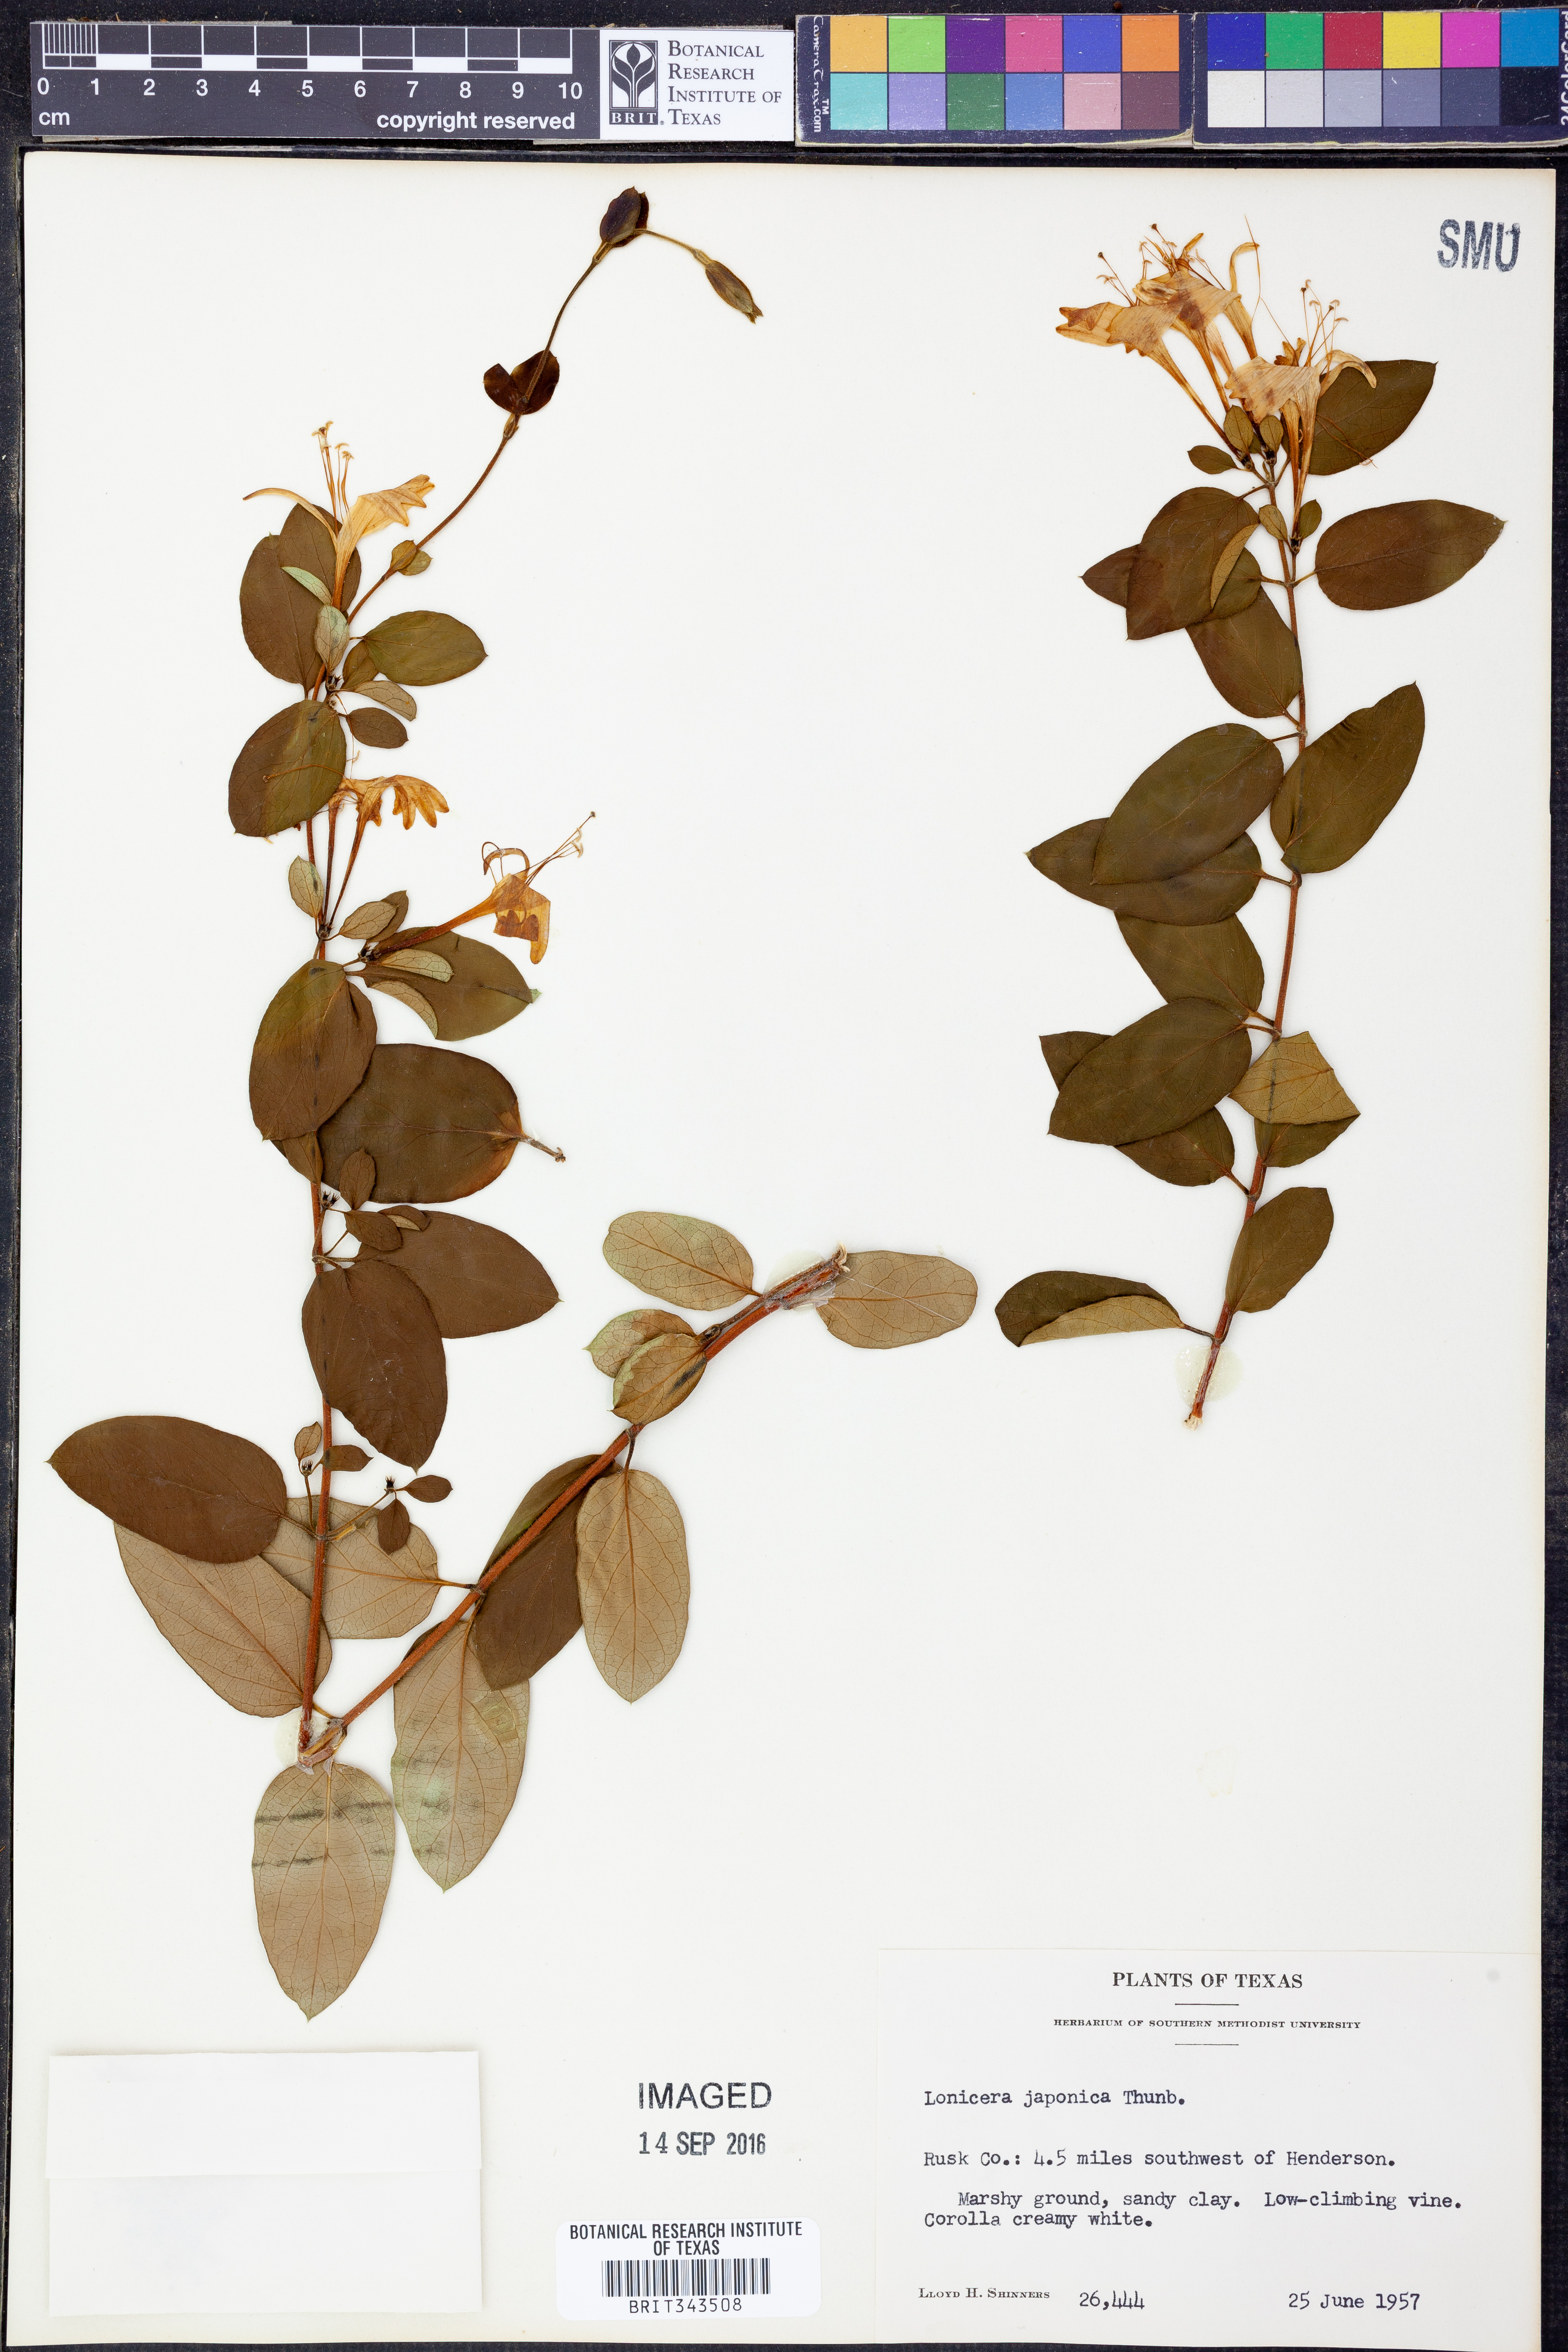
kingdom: Plantae
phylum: Tracheophyta
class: Magnoliopsida
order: Dipsacales
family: Caprifoliaceae
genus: Lonicera
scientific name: Lonicera japonica
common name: Japanese honeysuckle
